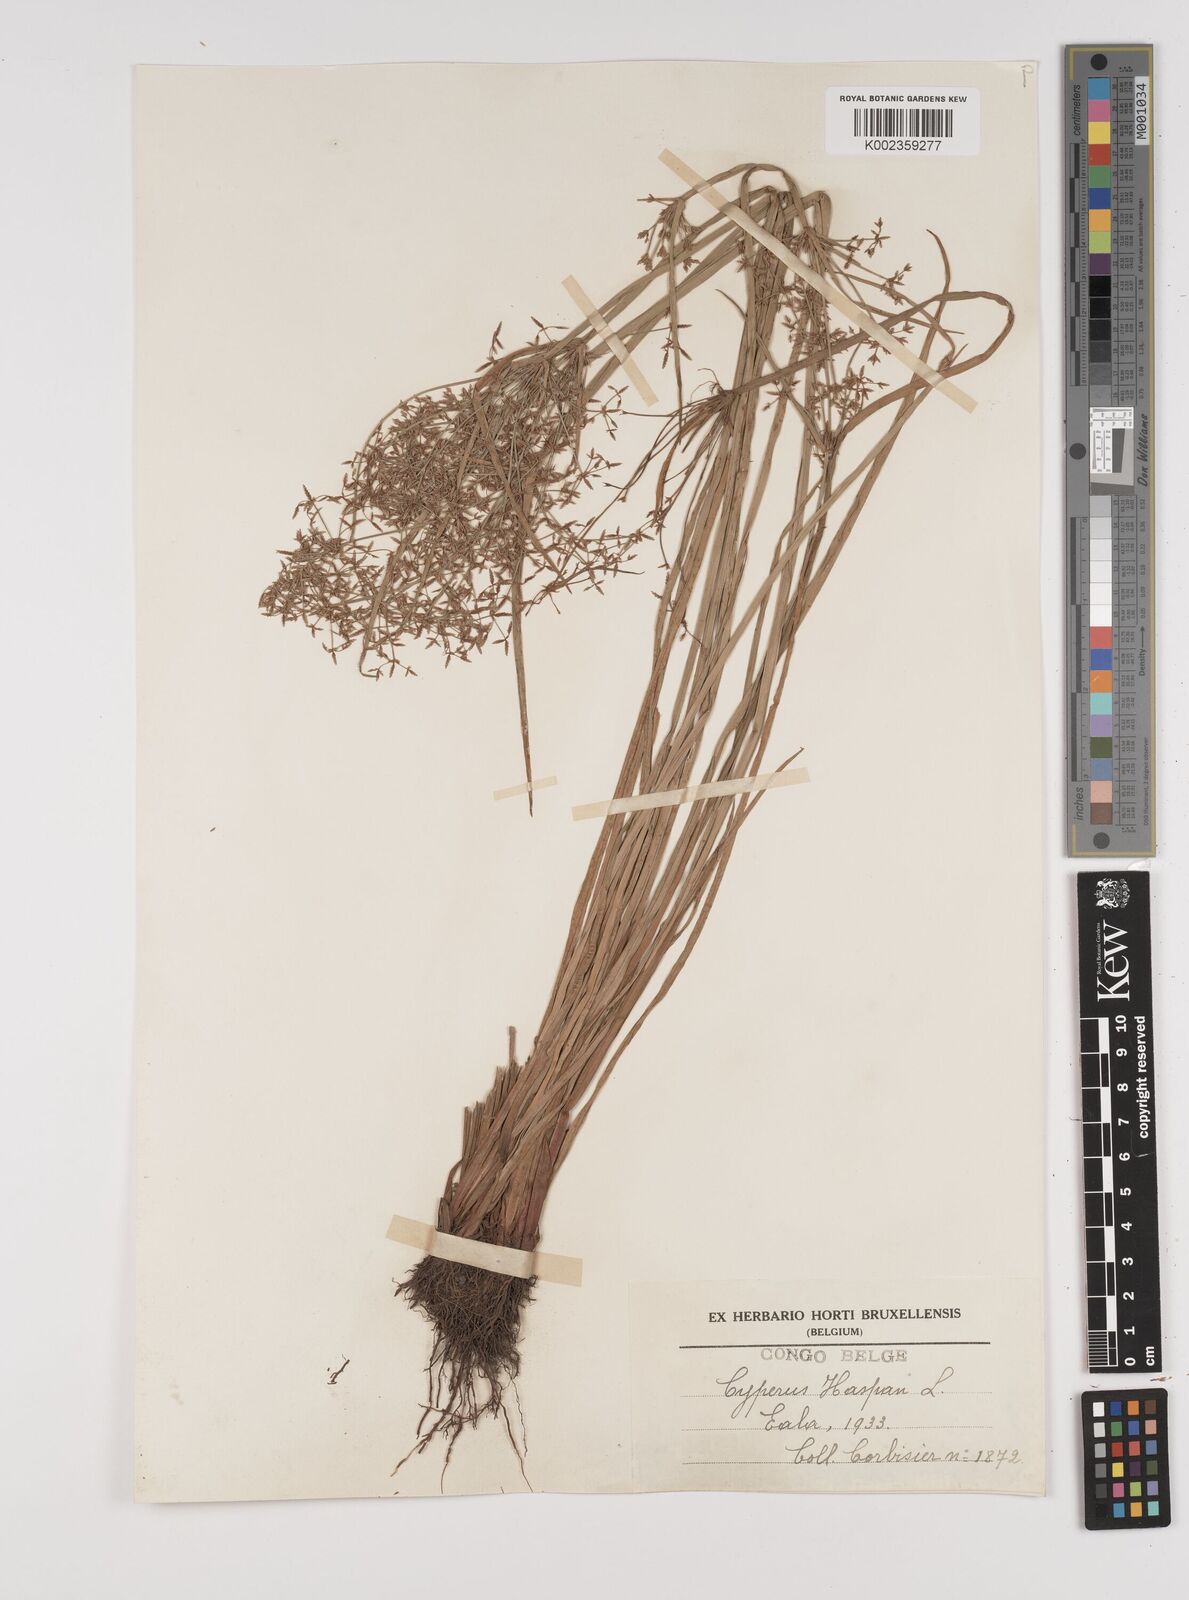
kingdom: Plantae
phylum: Tracheophyta
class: Liliopsida
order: Poales
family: Cyperaceae
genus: Cyperus
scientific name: Cyperus haspan
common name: Haspan flatsedge
